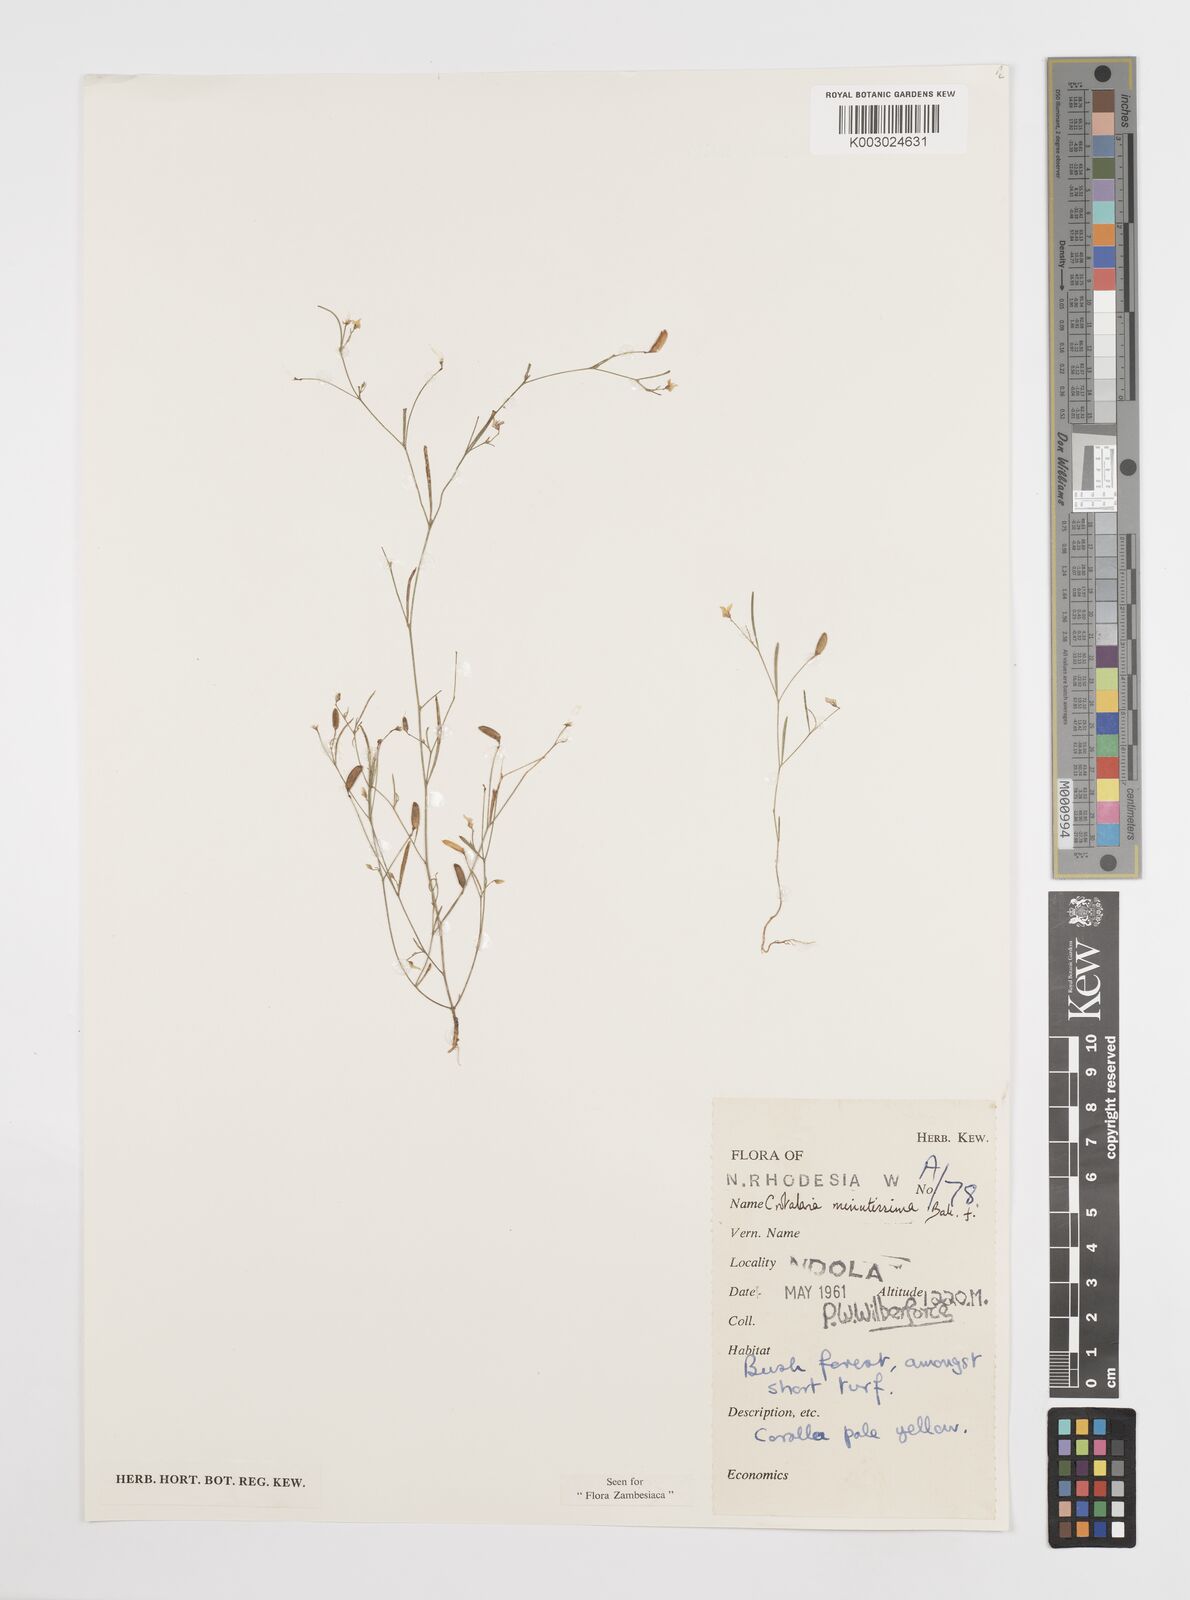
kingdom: Plantae
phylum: Tracheophyta
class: Magnoliopsida
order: Fabales
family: Fabaceae
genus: Crotalaria
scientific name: Crotalaria minutissima
